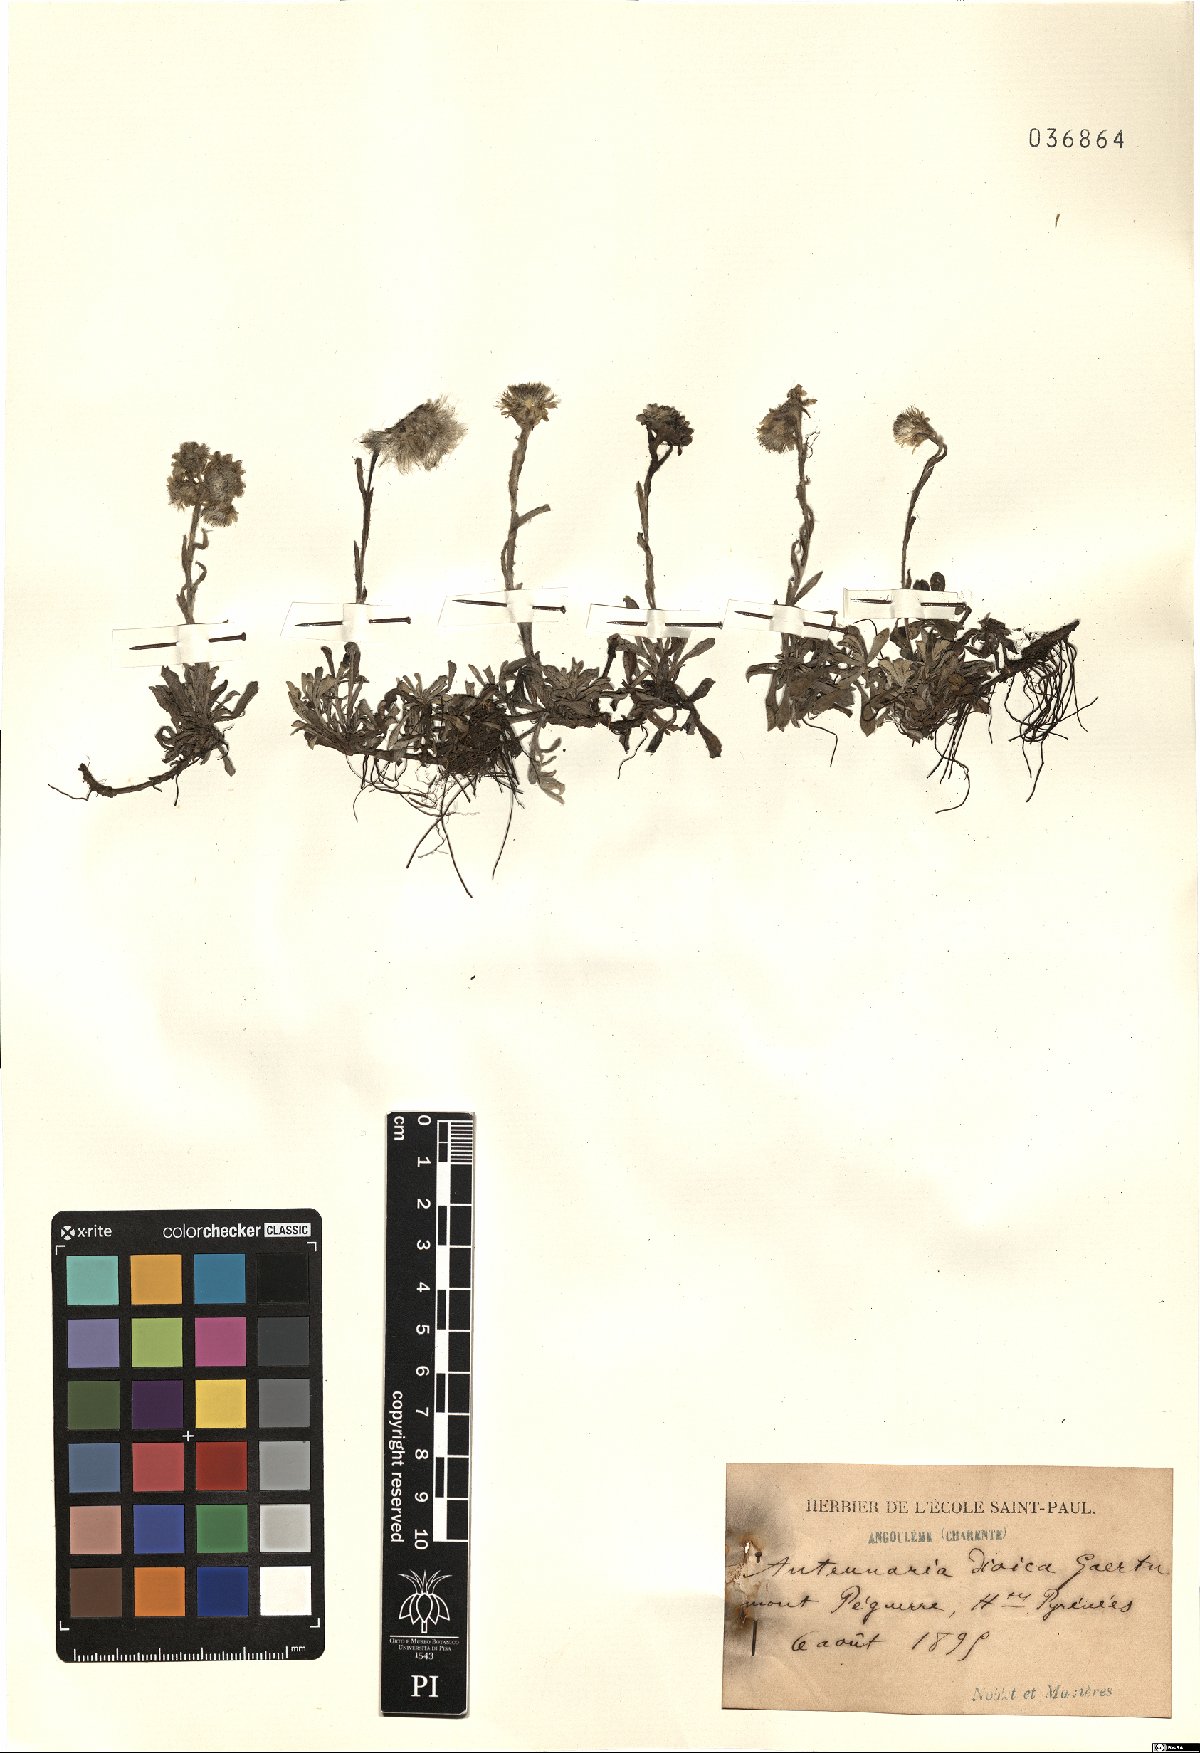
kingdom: Plantae
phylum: Tracheophyta
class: Magnoliopsida
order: Asterales
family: Asteraceae
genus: Antennaria
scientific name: Antennaria dioica
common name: Mountain everlasting
